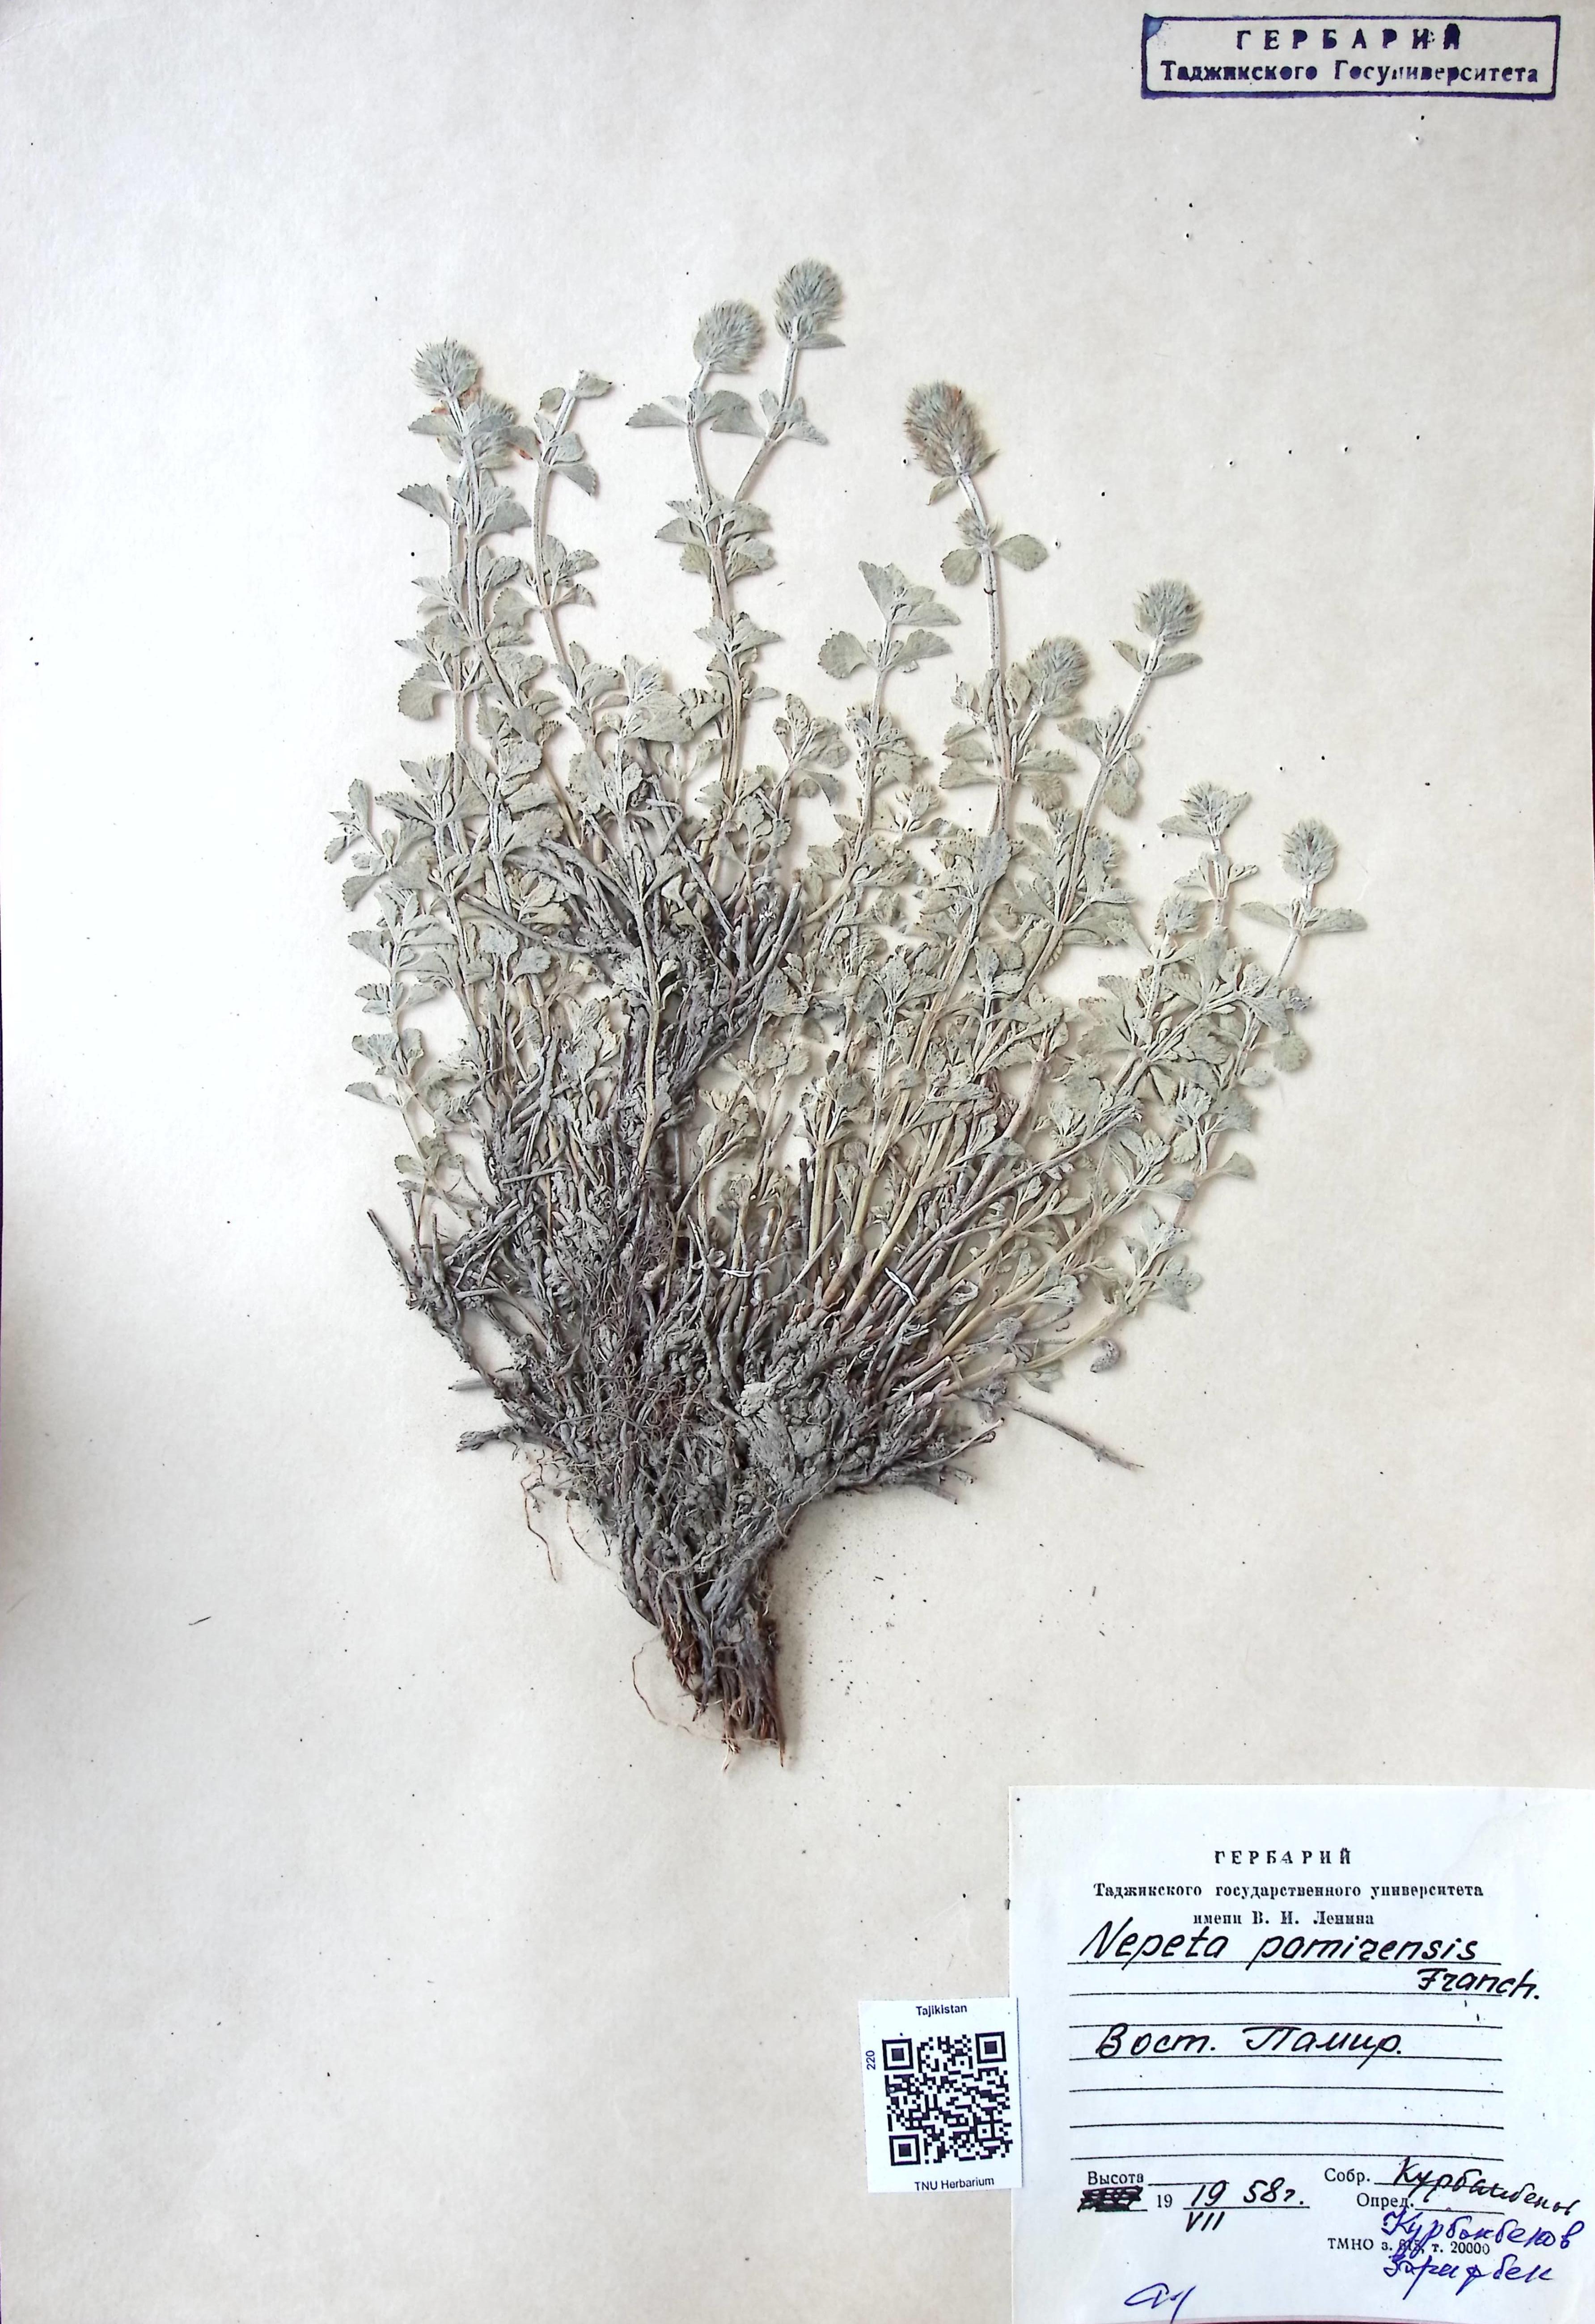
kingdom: Plantae
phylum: Tracheophyta
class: Magnoliopsida
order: Lamiales
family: Lamiaceae
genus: Nepeta
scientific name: Nepeta pamirensis
